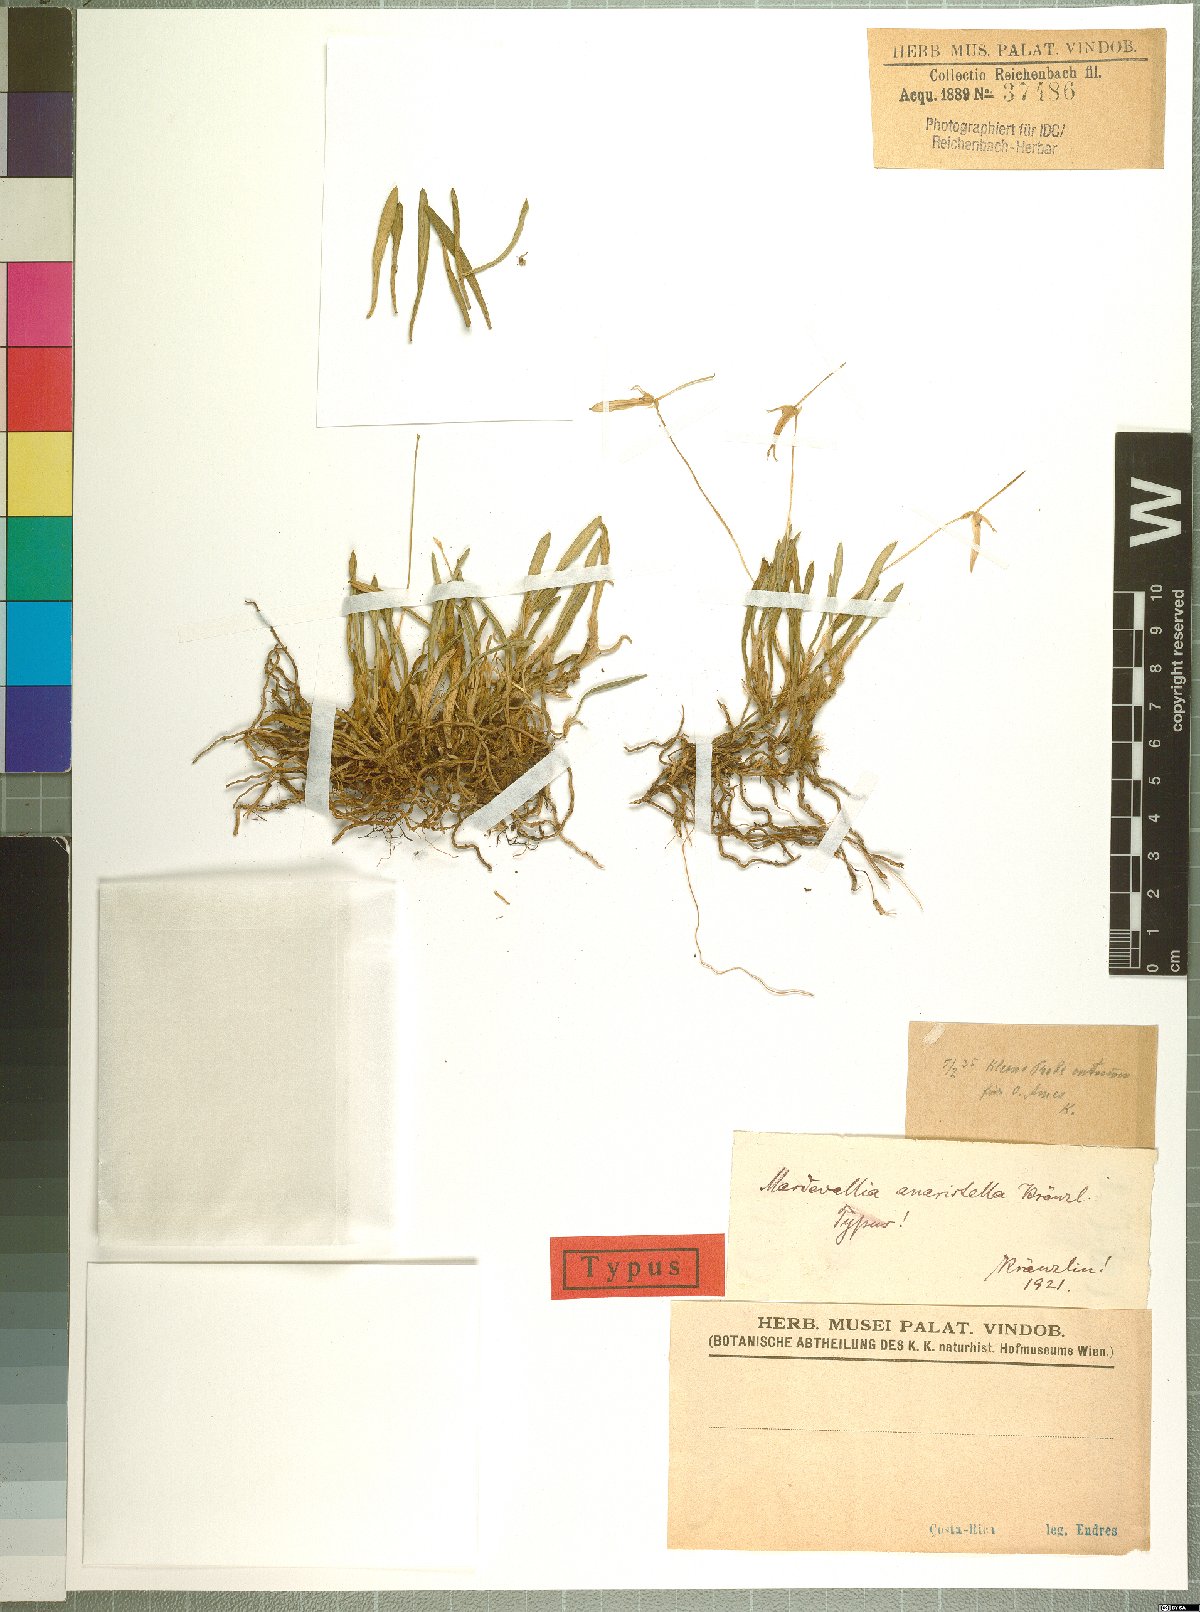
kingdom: Plantae
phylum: Tracheophyta
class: Liliopsida
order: Asparagales
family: Orchidaceae
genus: Barbosella
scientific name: Barbosella dolichorhiza
